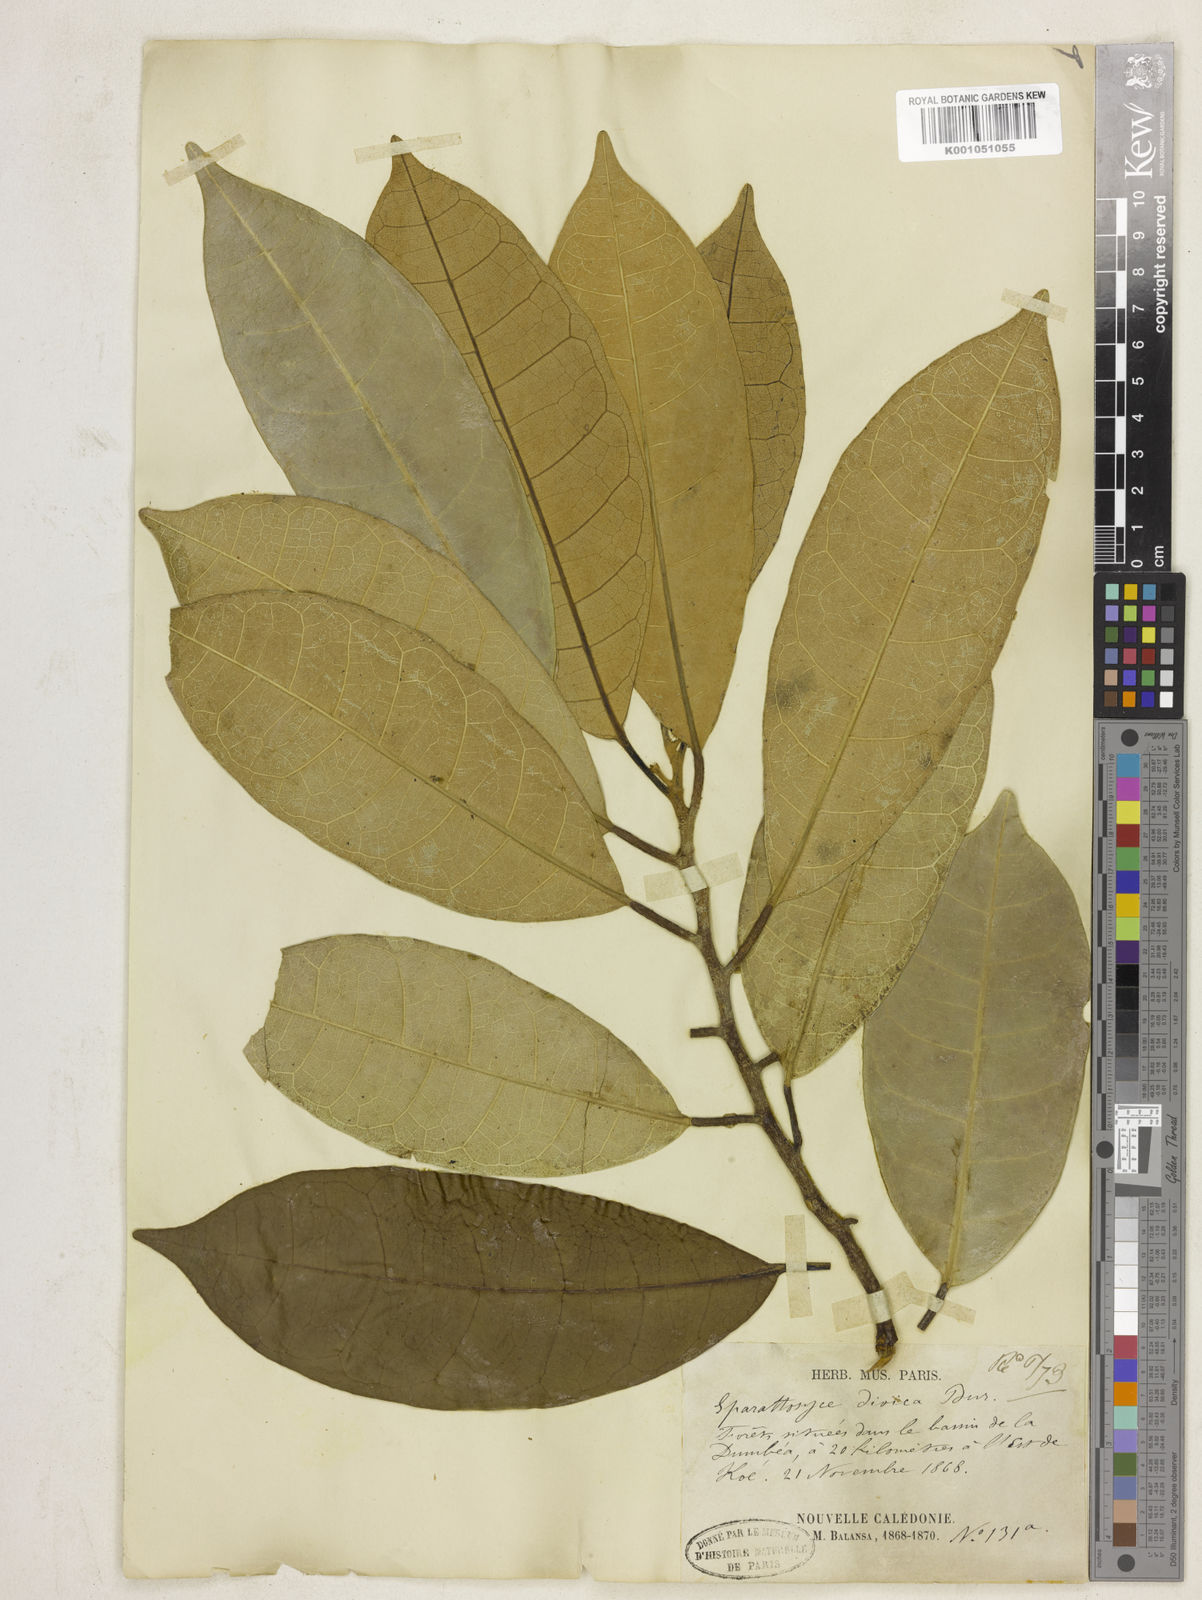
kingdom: Plantae
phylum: Tracheophyta
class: Magnoliopsida
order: Rosales
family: Moraceae
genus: Sparattosyce
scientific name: Sparattosyce dioica
